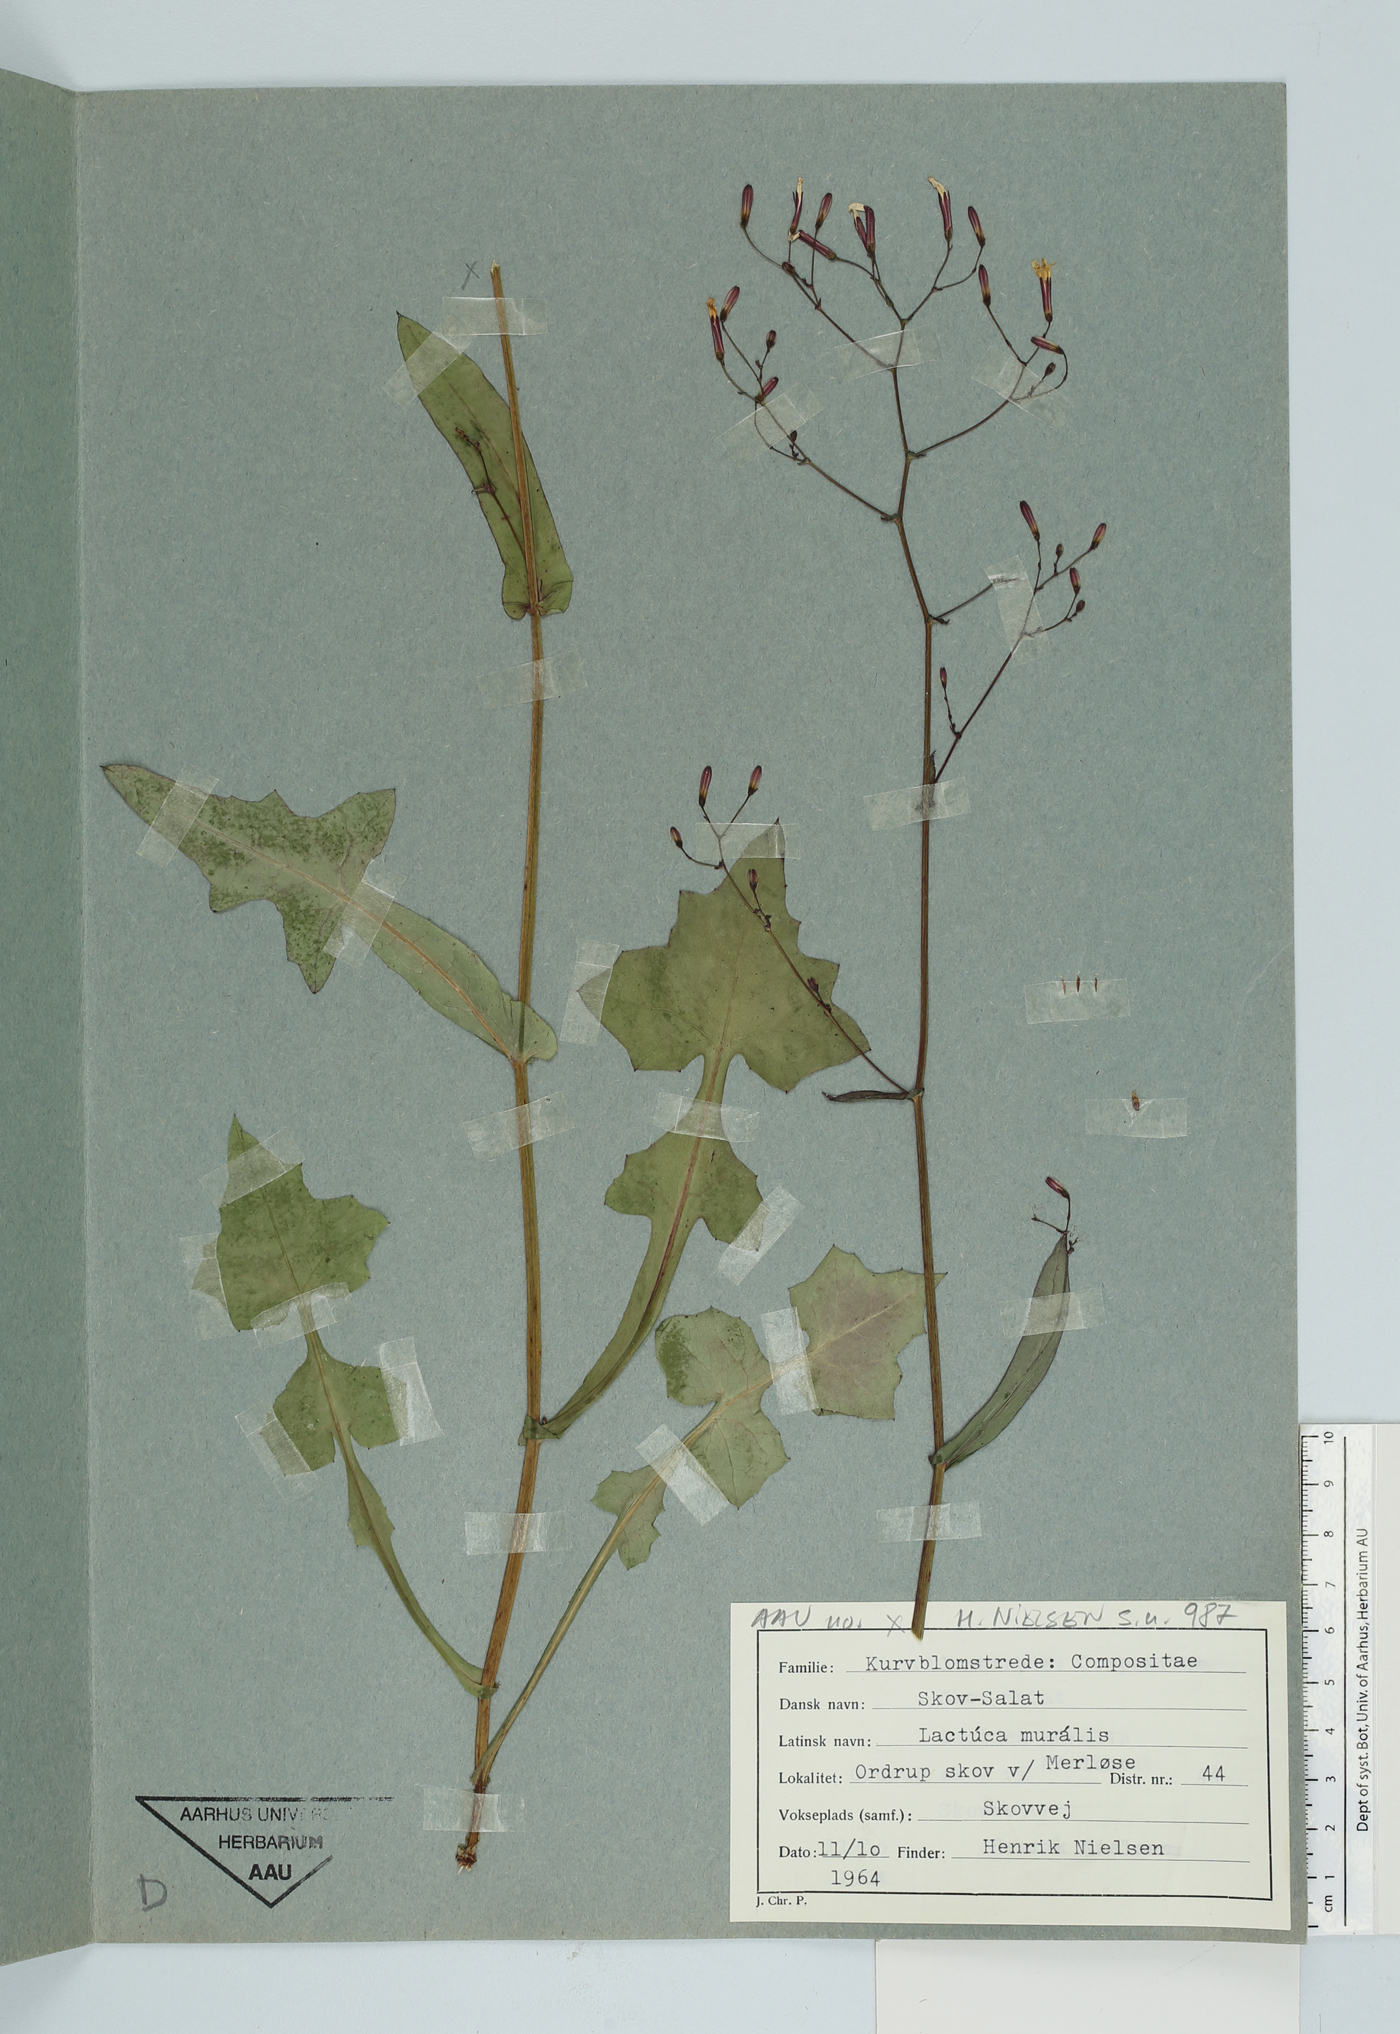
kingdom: Plantae
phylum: Tracheophyta
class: Magnoliopsida
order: Asterales
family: Asteraceae
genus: Mycelis
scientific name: Mycelis muralis
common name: Wall lettuce
